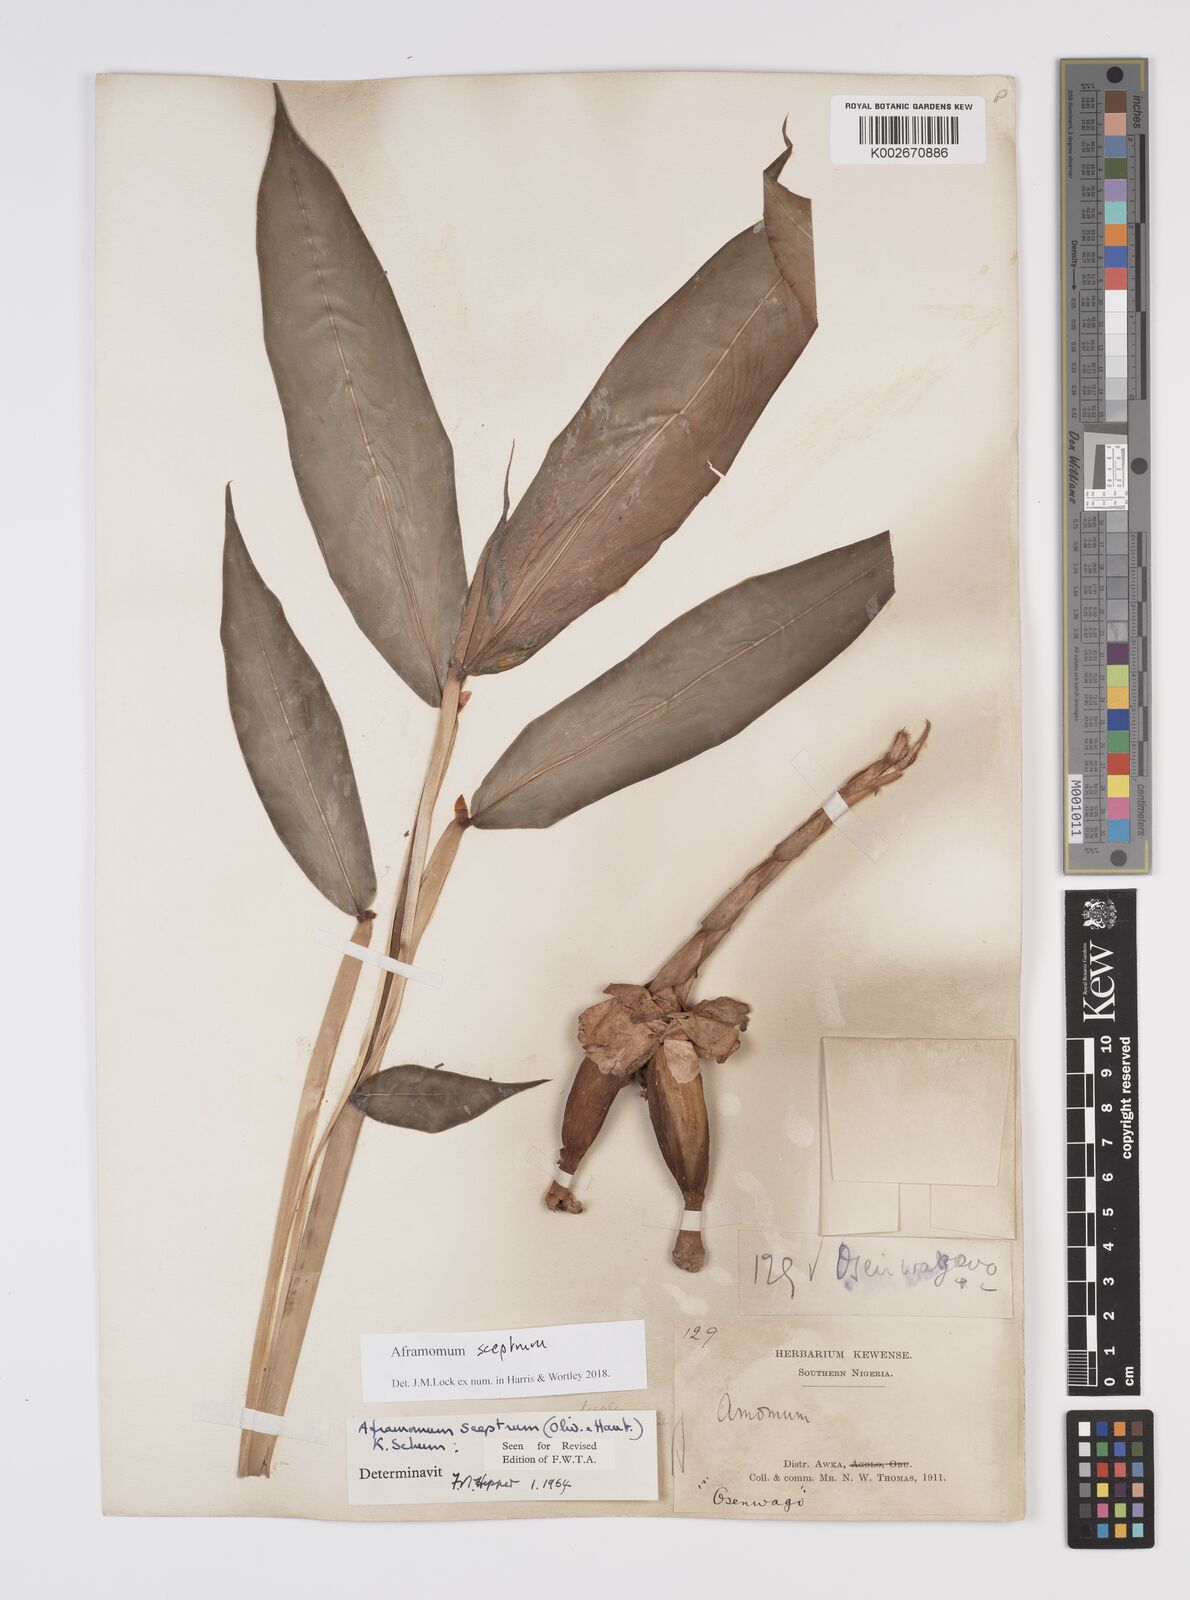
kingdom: Plantae
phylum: Tracheophyta
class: Liliopsida
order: Zingiberales
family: Zingiberaceae
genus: Aframomum
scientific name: Aframomum cereum
